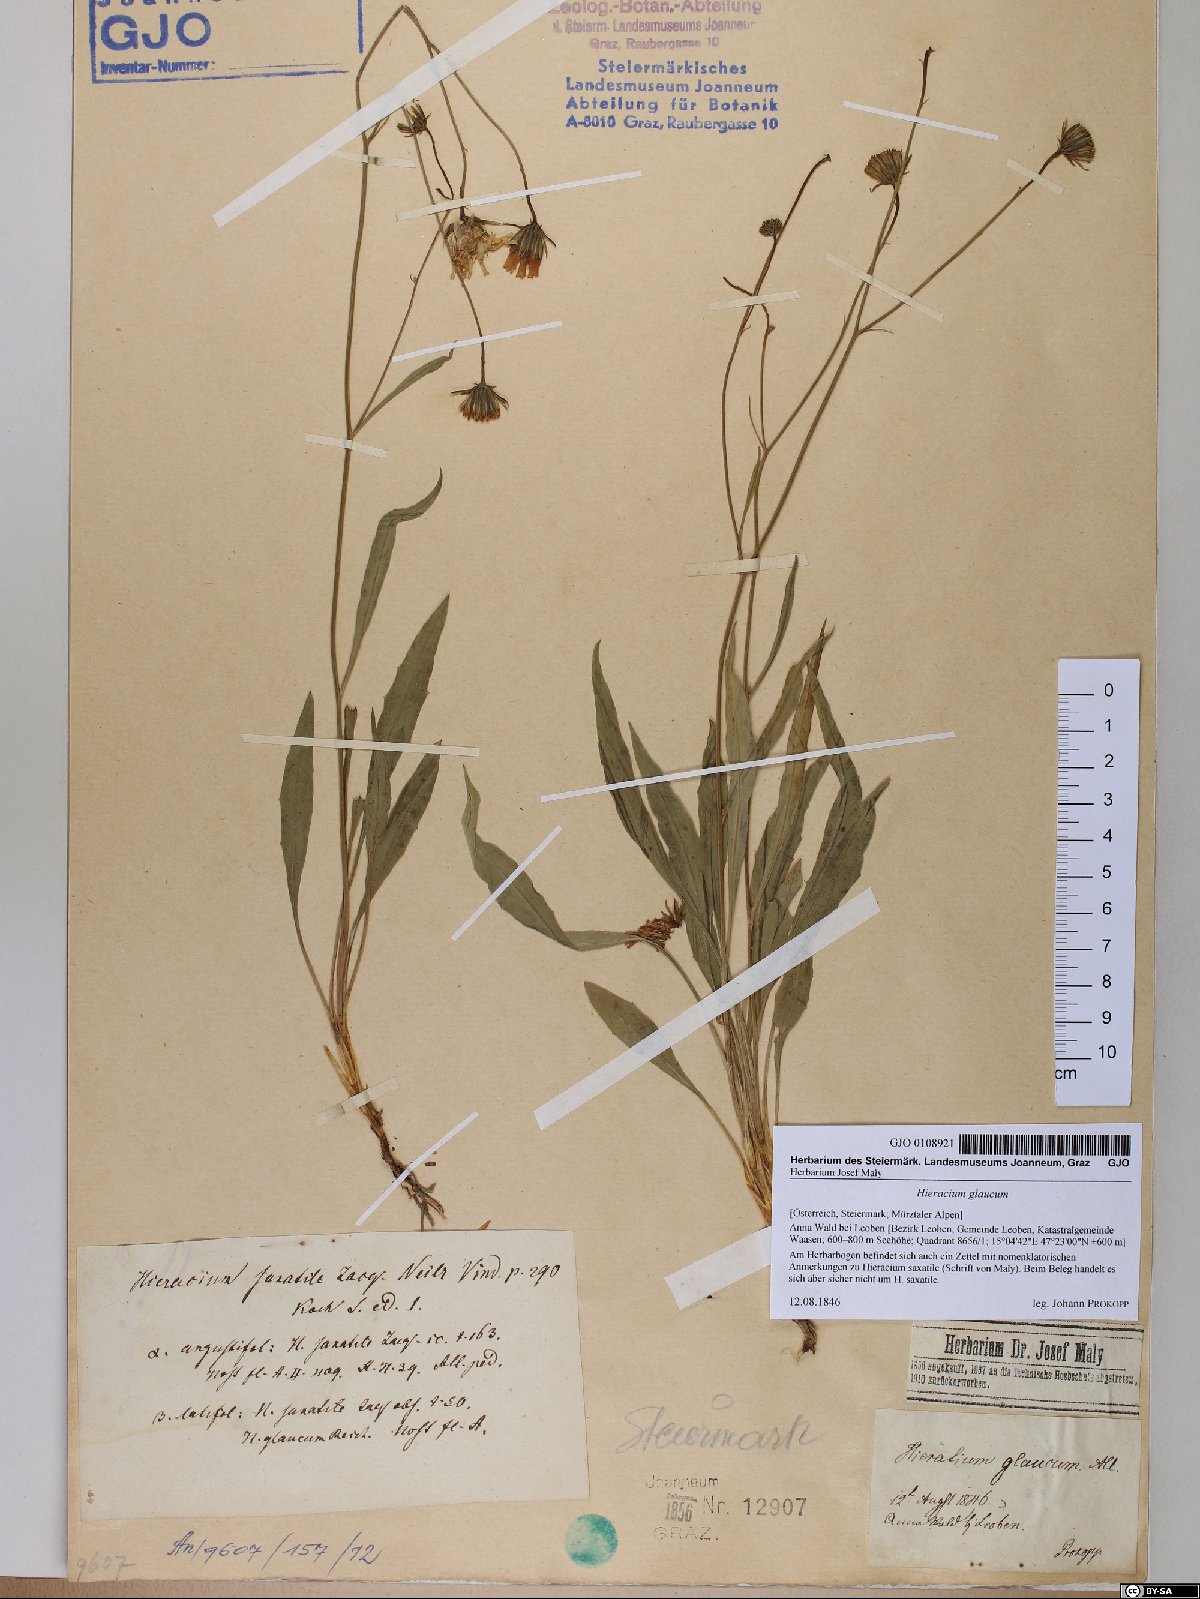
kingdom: Plantae
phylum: Tracheophyta
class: Magnoliopsida
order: Asterales
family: Asteraceae
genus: Hieracium
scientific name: Hieracium glaucum
